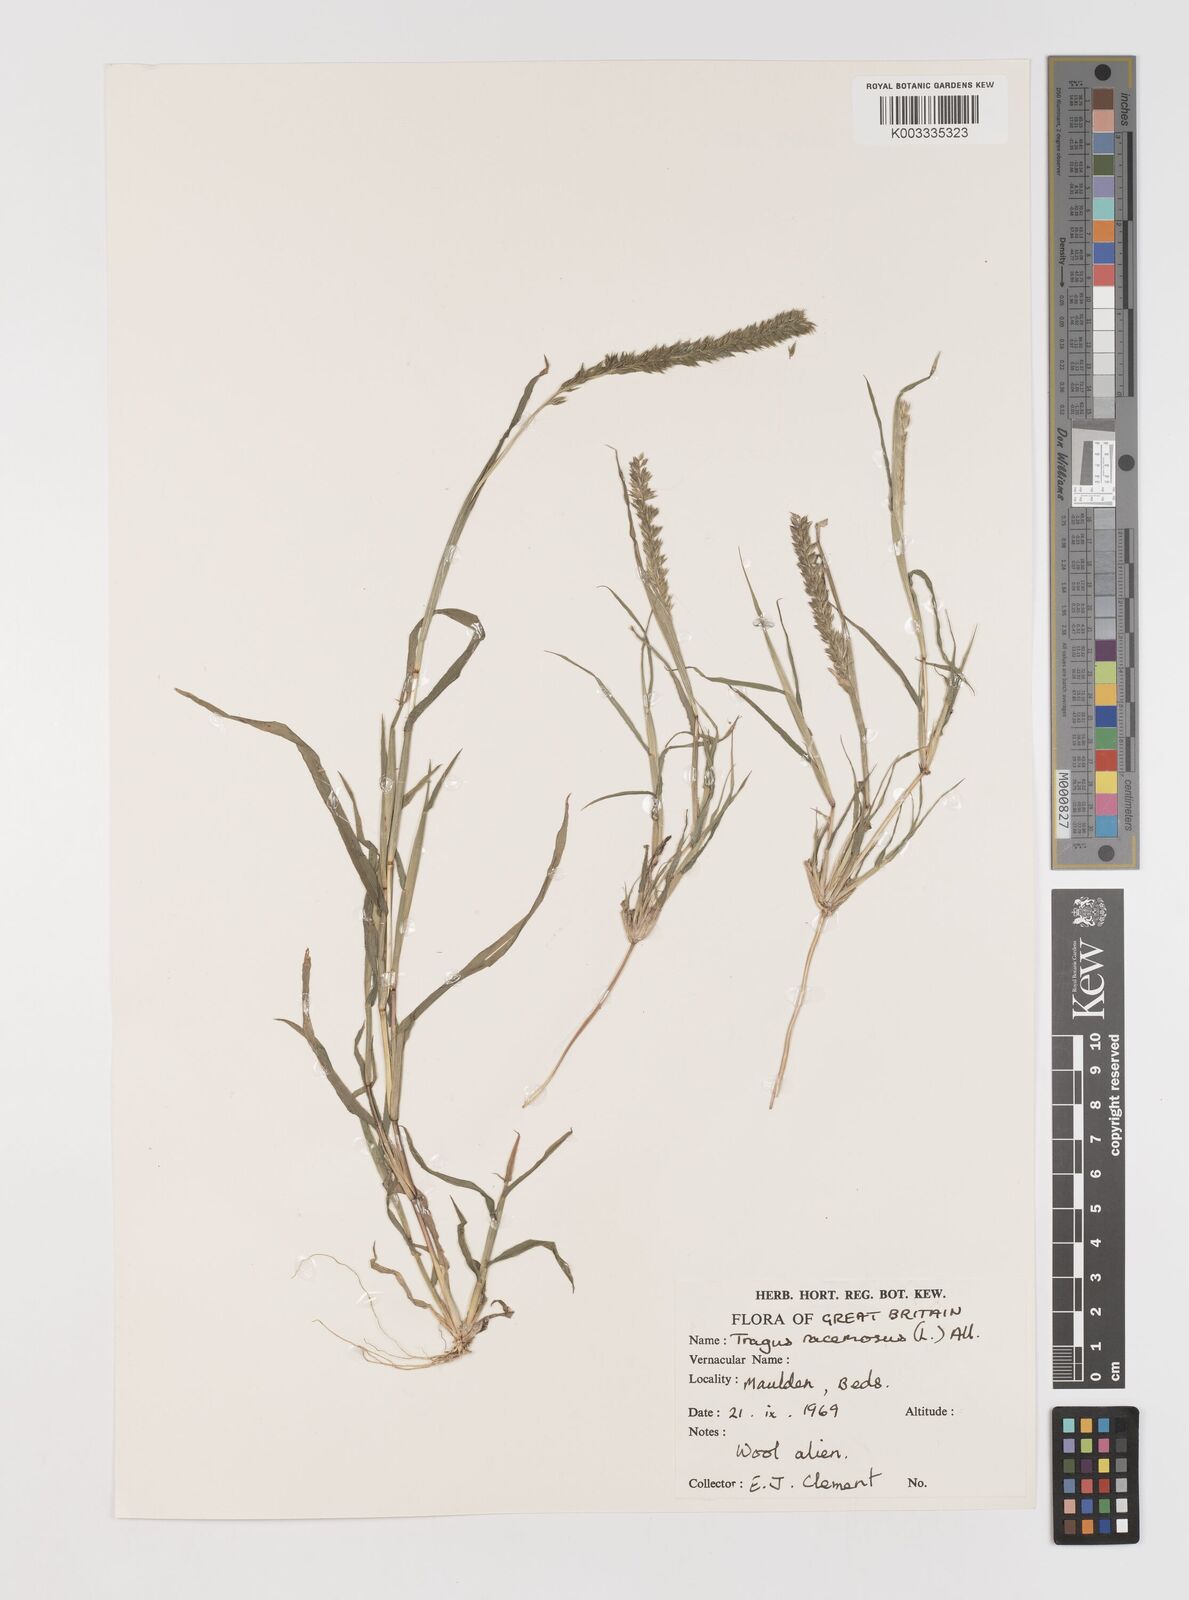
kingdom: Plantae
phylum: Tracheophyta
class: Liliopsida
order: Poales
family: Poaceae
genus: Tragus
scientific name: Tragus racemosus
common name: European bur-grass
